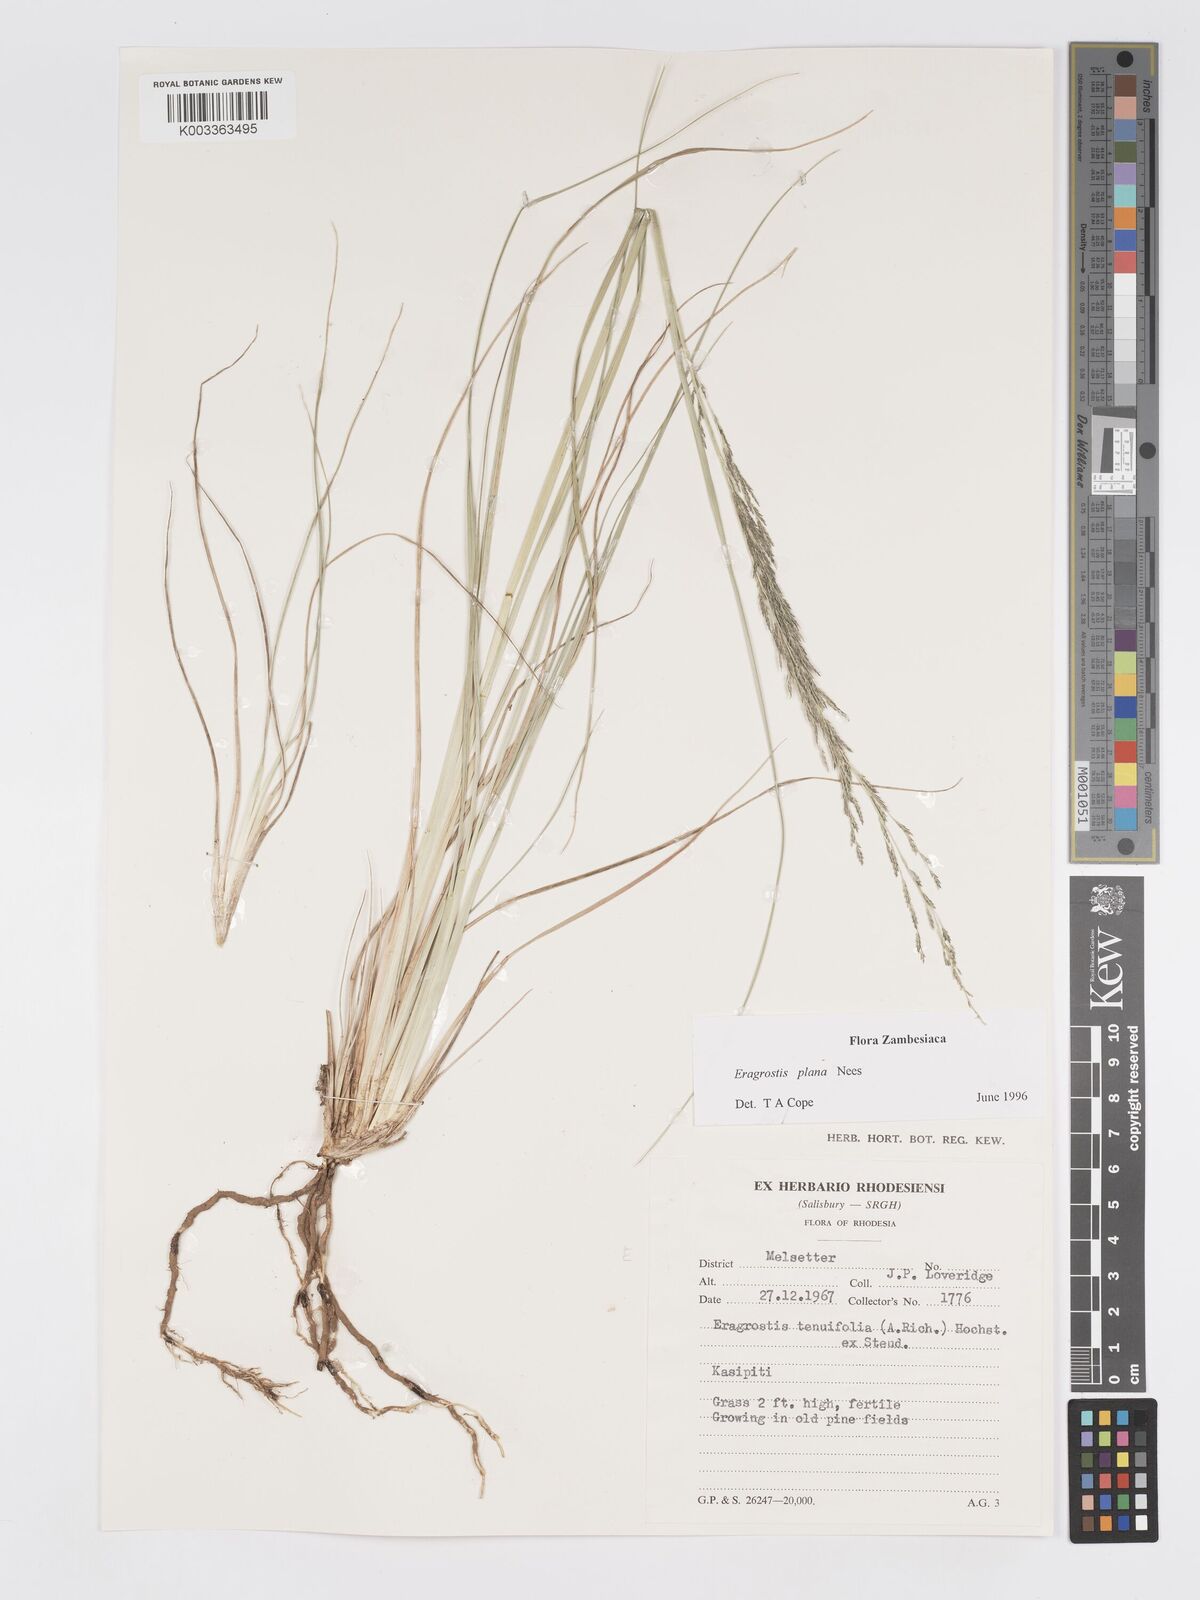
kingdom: Plantae
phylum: Tracheophyta
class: Liliopsida
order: Poales
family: Poaceae
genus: Eragrostis
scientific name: Eragrostis plana
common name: South african lovegrass
